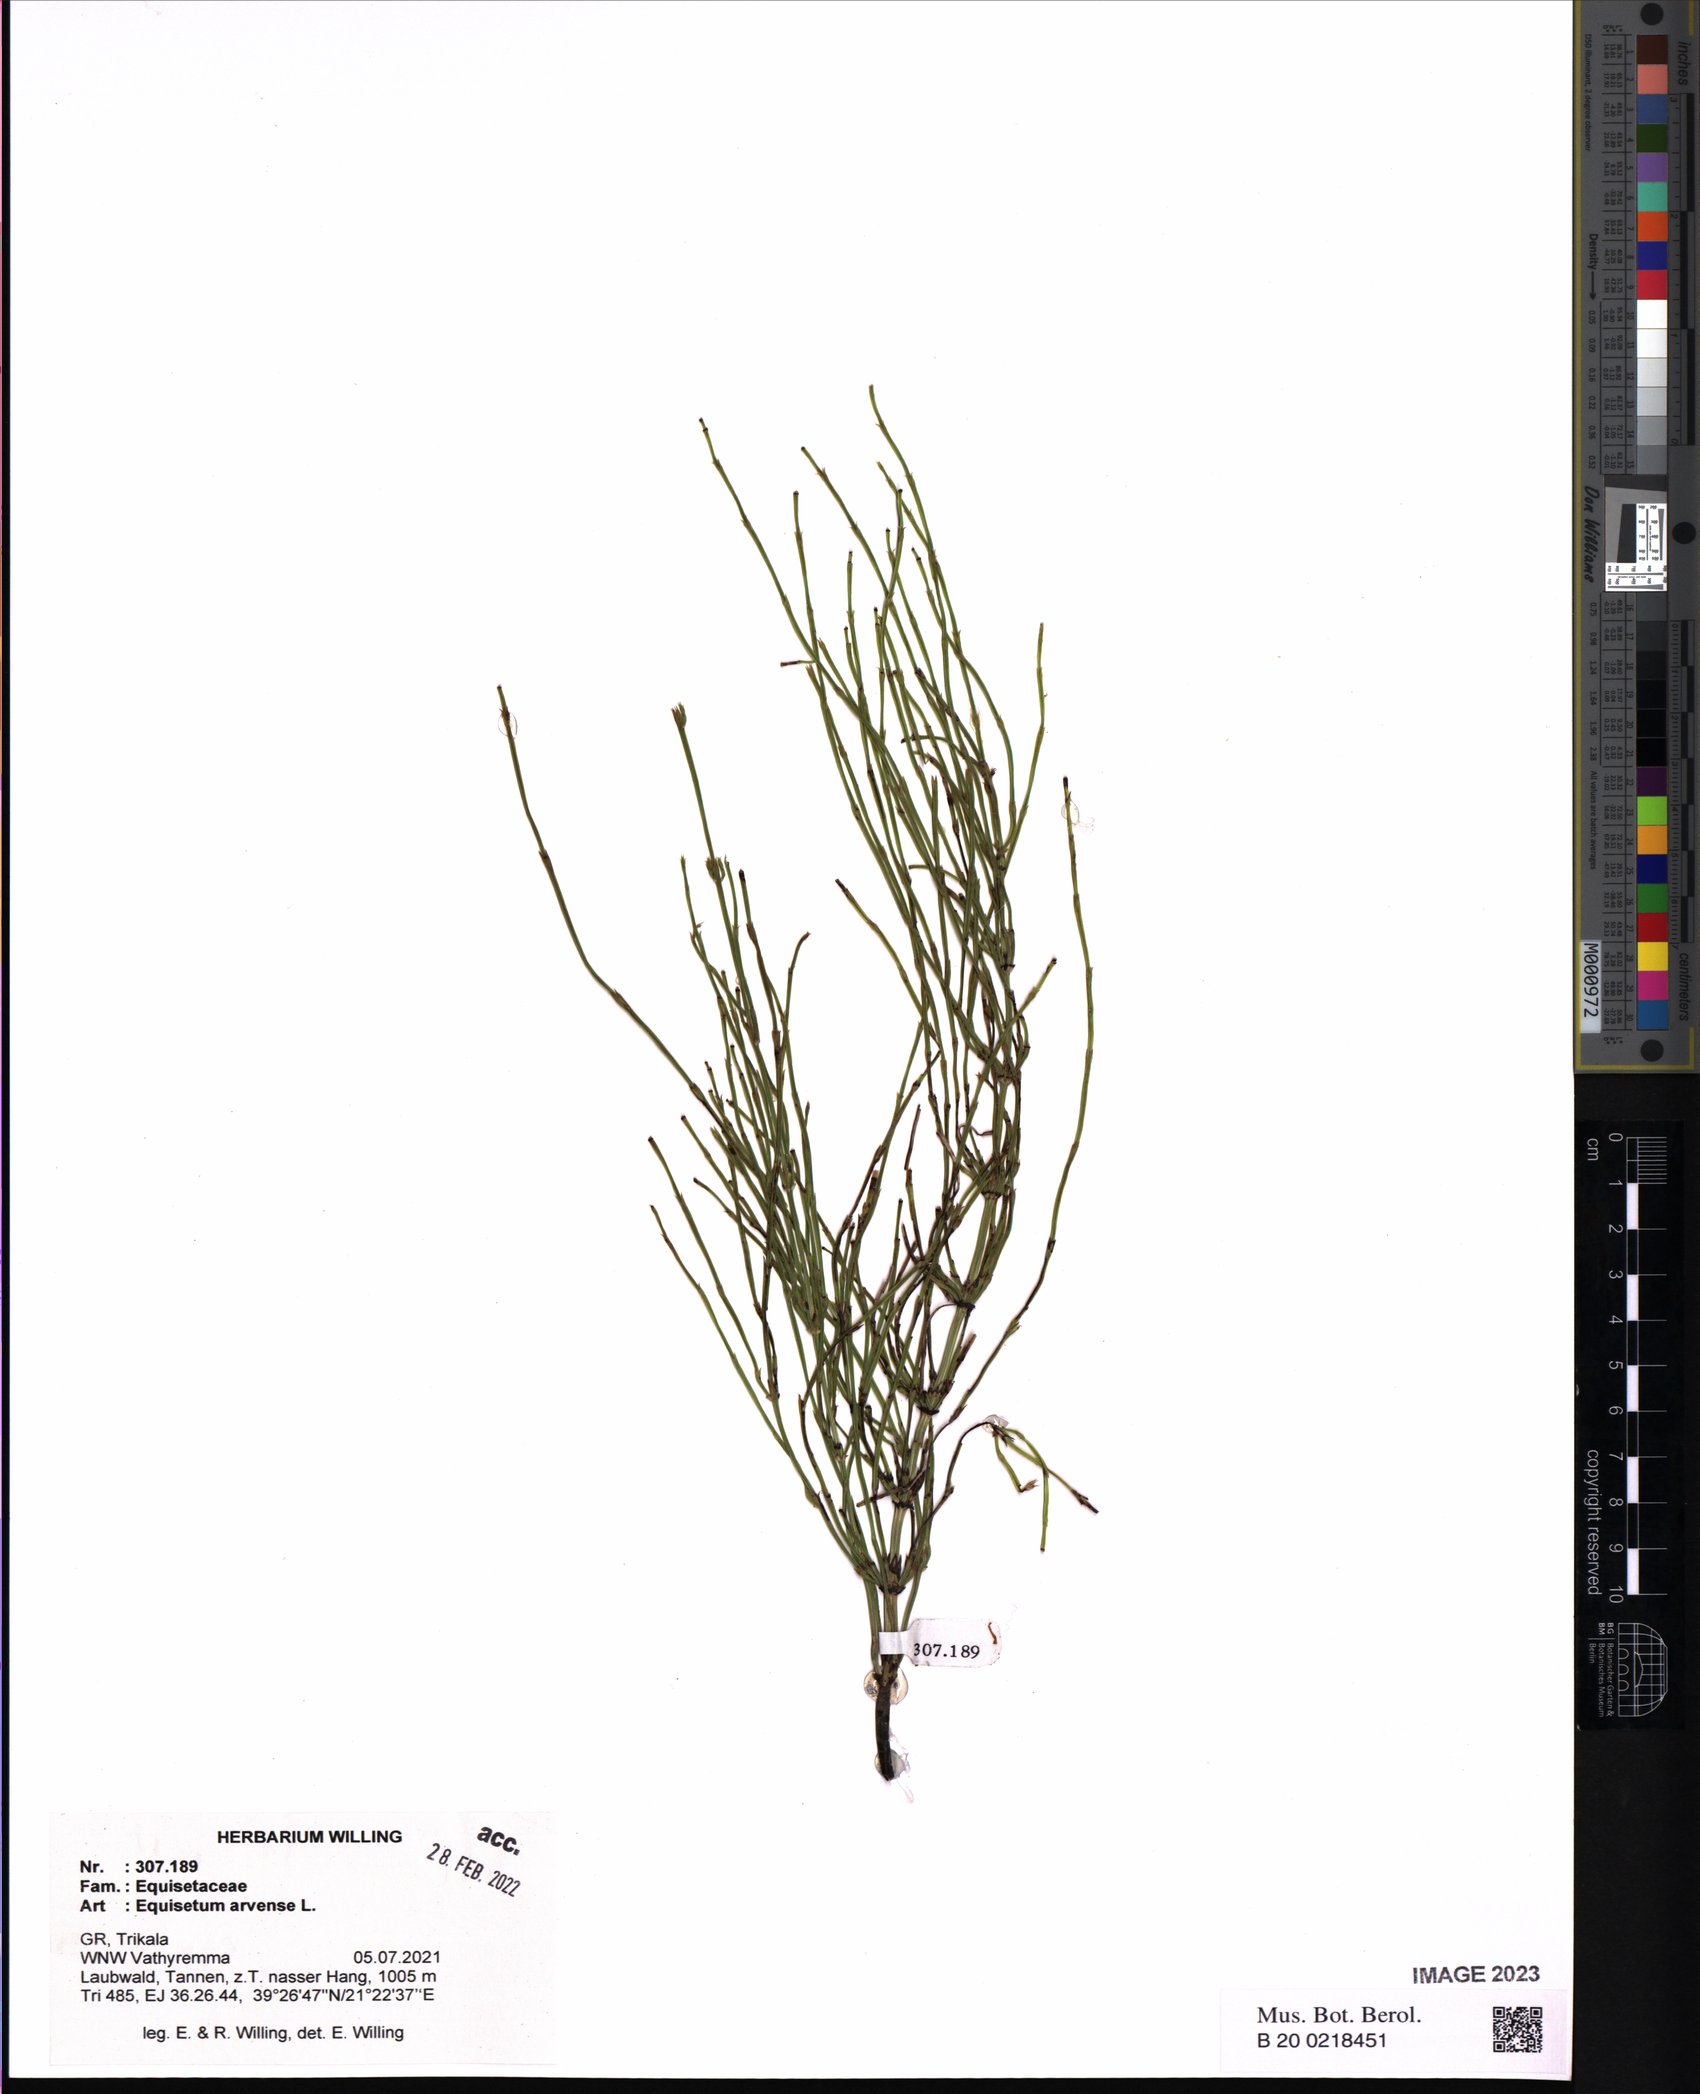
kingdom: Plantae
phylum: Tracheophyta
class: Polypodiopsida
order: Equisetales
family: Equisetaceae
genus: Equisetum
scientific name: Equisetum arvense
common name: Field horsetail
